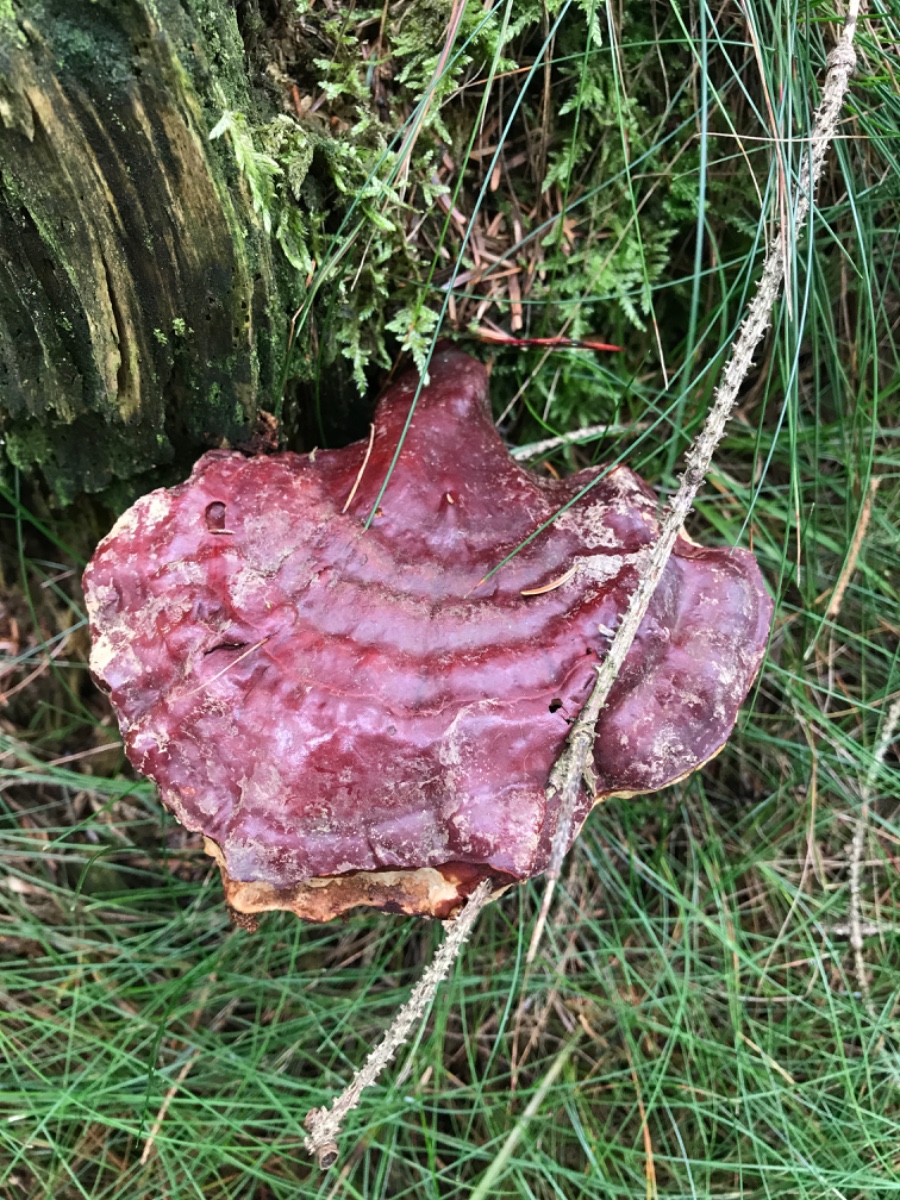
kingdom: Fungi
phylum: Basidiomycota
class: Agaricomycetes
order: Polyporales
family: Polyporaceae
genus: Ganoderma
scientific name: Ganoderma lucidum
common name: skinnende lakporesvamp
